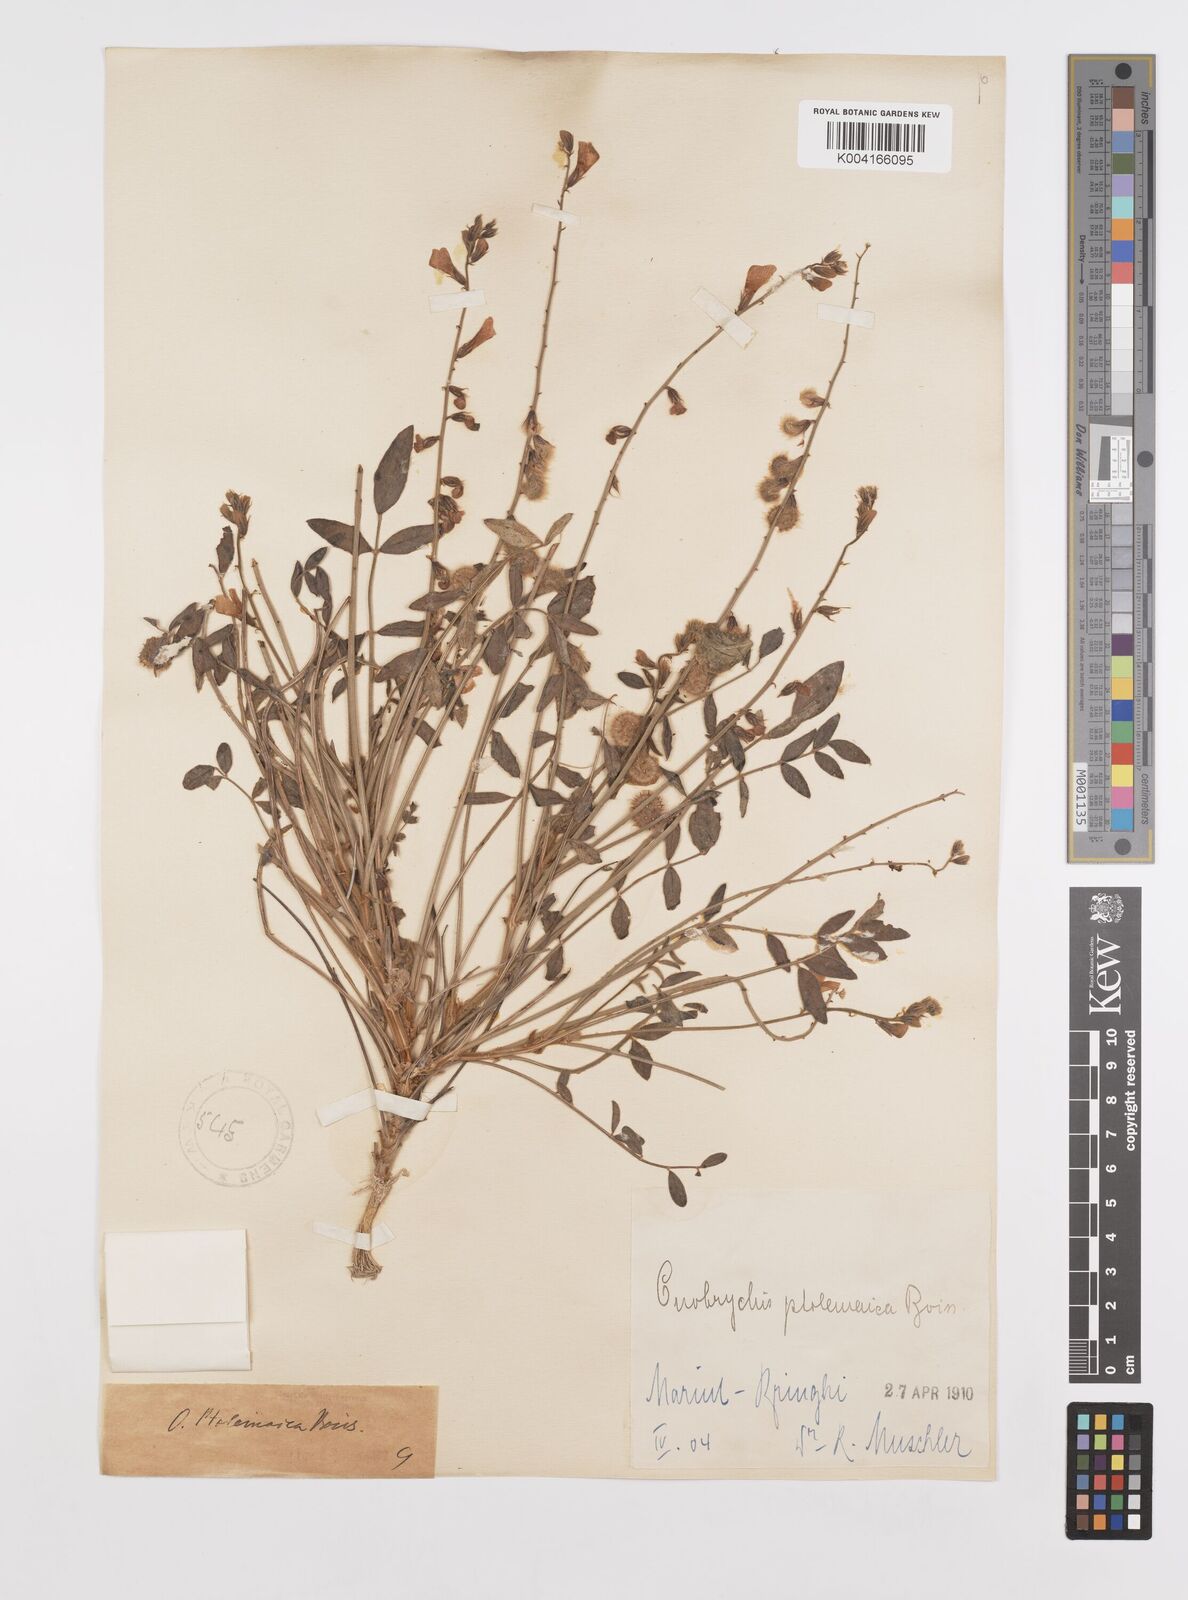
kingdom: Plantae
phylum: Tracheophyta
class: Magnoliopsida
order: Fabales
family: Fabaceae
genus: Onobrychis
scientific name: Onobrychis ptolemaica
